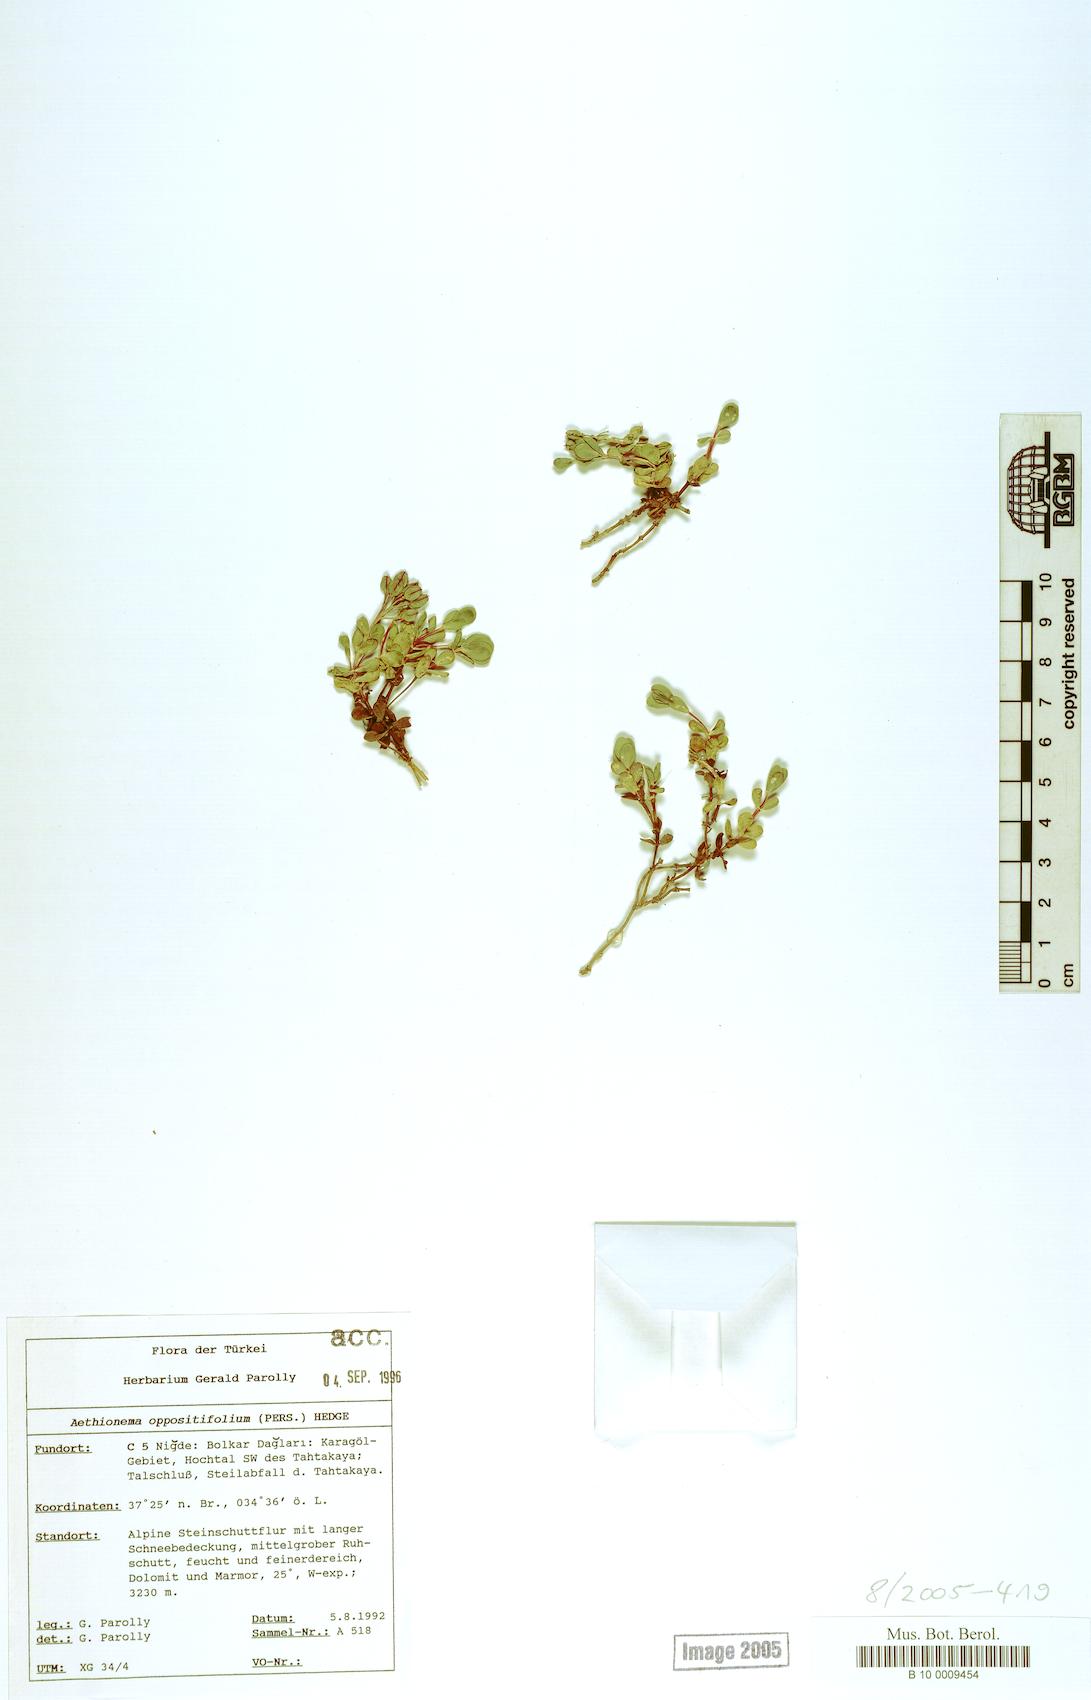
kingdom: Plantae
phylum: Tracheophyta
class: Magnoliopsida
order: Brassicales
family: Brassicaceae
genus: Noccaea
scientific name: Noccaea oppositifolia
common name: Twin-leaf stone-cress
